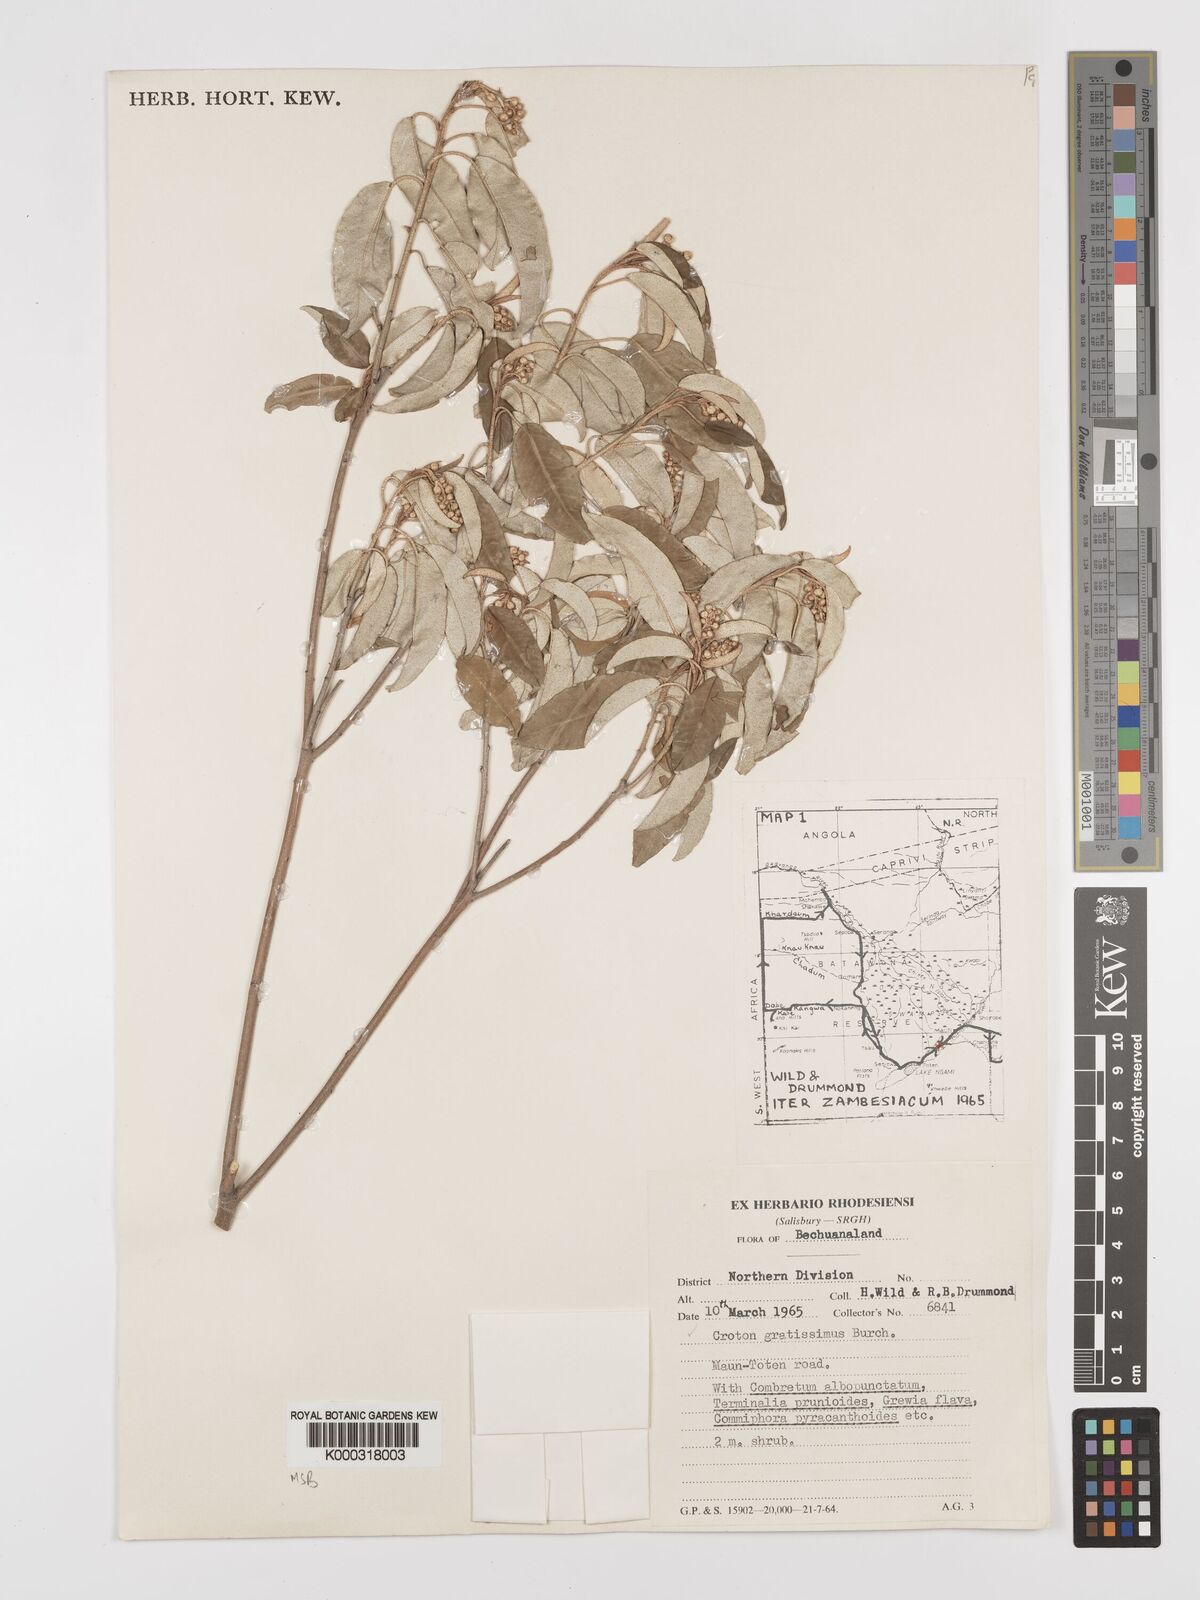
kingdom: Plantae
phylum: Tracheophyta
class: Magnoliopsida
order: Malpighiales
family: Euphorbiaceae
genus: Croton
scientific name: Croton gratissimus
